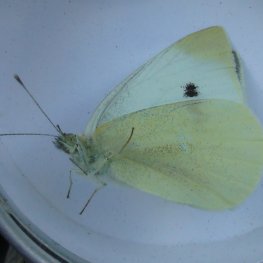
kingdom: Animalia
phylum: Arthropoda
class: Insecta
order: Lepidoptera
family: Pieridae
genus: Pieris
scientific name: Pieris rapae
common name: Cabbage White
